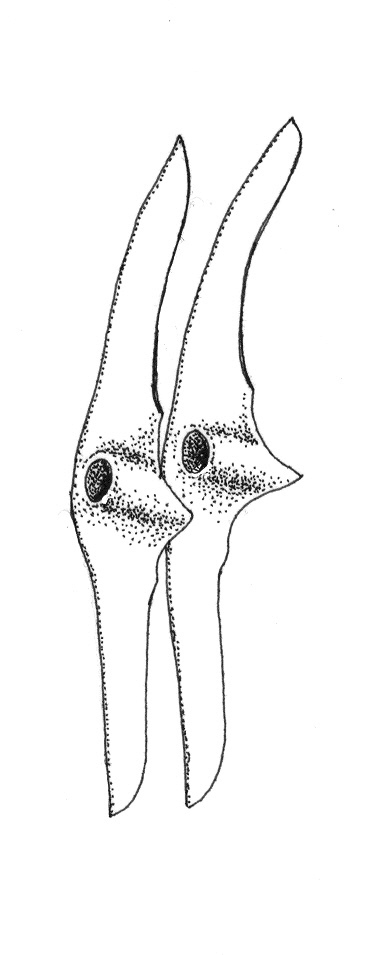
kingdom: Animalia
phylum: Chordata
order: Perciformes
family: Carangidae
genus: Trachurus
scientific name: Trachurus trachurus
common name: Horse mackerel
